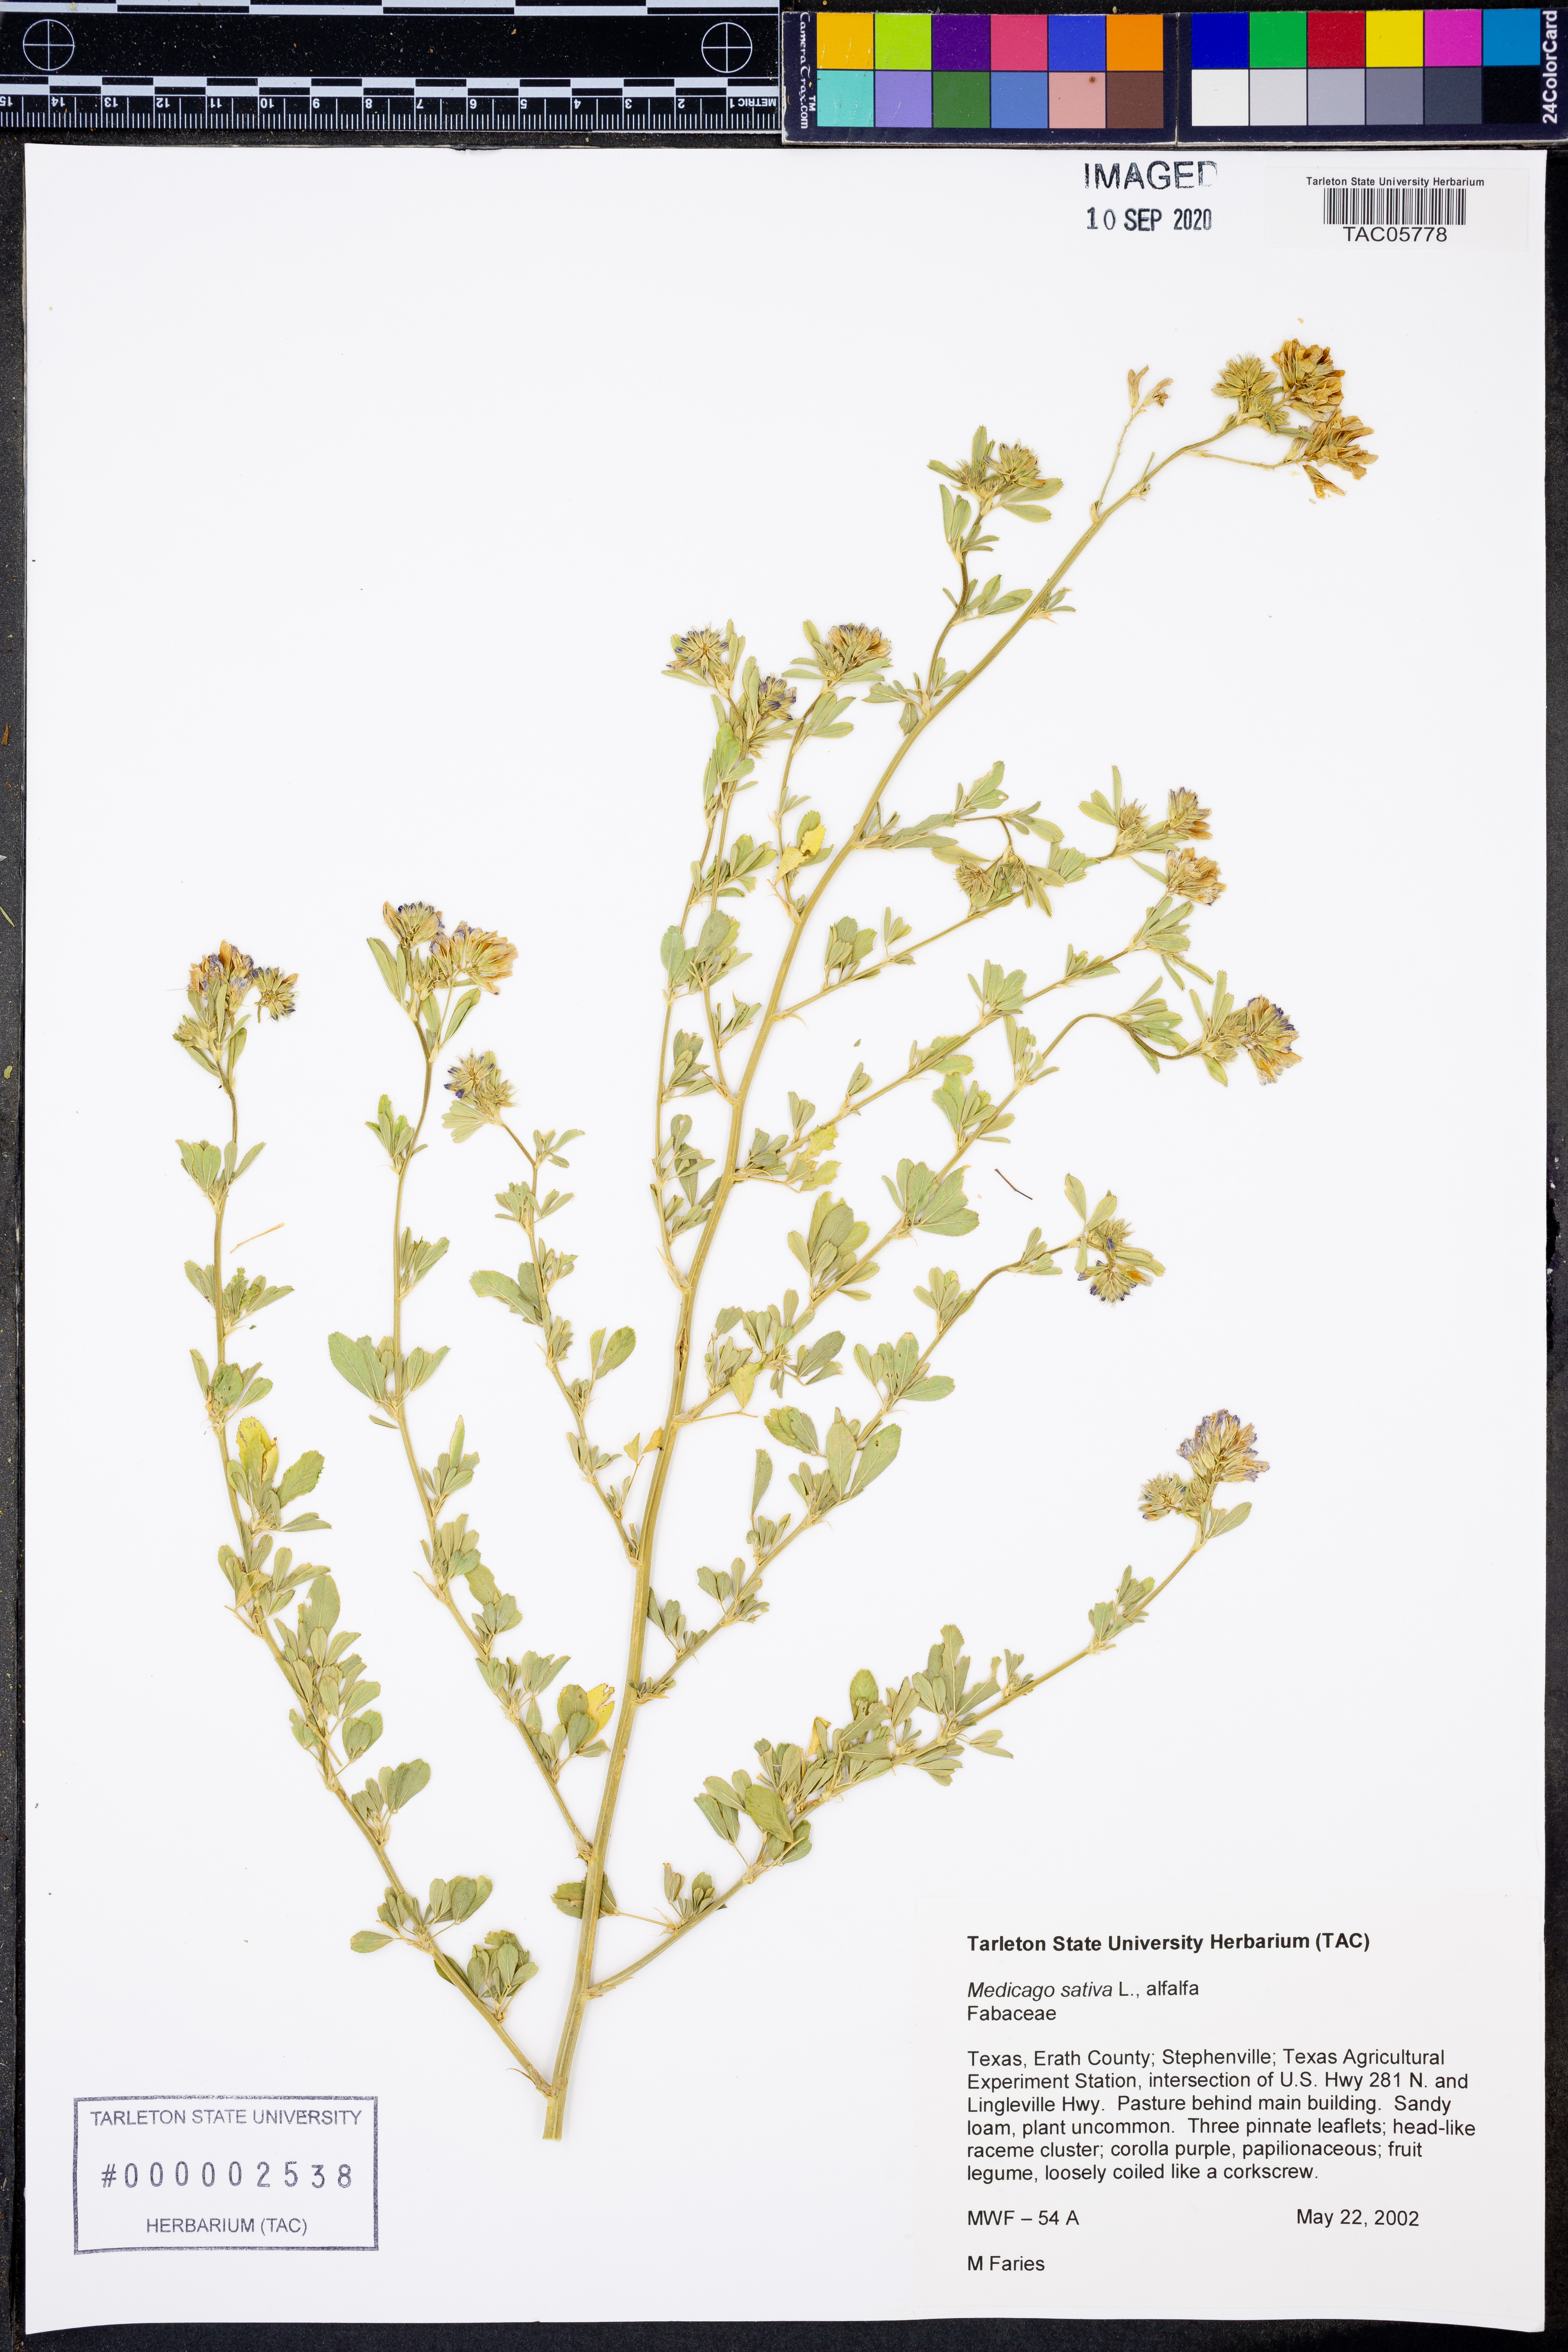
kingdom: Plantae
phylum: Tracheophyta
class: Magnoliopsida
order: Fabales
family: Fabaceae
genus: Medicago
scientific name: Medicago sativa
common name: Alfalfa
